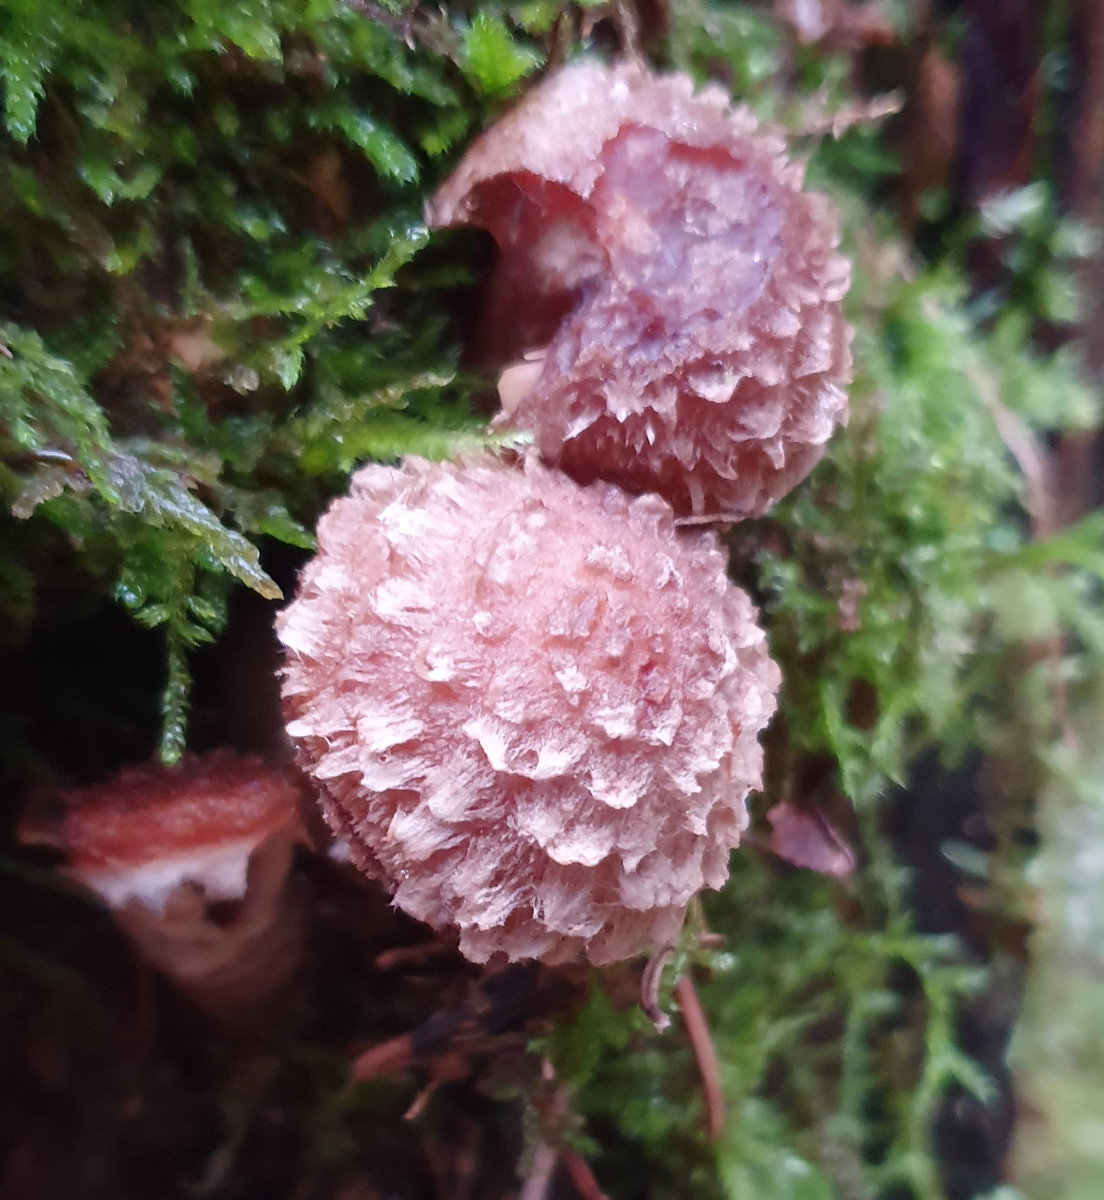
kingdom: Fungi
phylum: Basidiomycota
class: Agaricomycetes
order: Agaricales
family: Physalacriaceae
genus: Armillaria
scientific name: Armillaria ostoyae
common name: mørk honningsvamp
